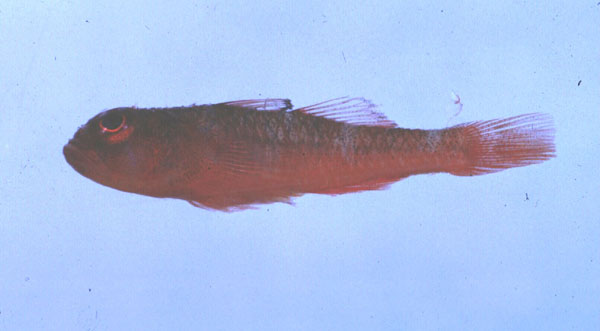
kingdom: Animalia
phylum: Chordata
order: Perciformes
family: Gobiidae
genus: Trimma
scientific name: Trimma unisquamis
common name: Blackmargin pygmy goby
